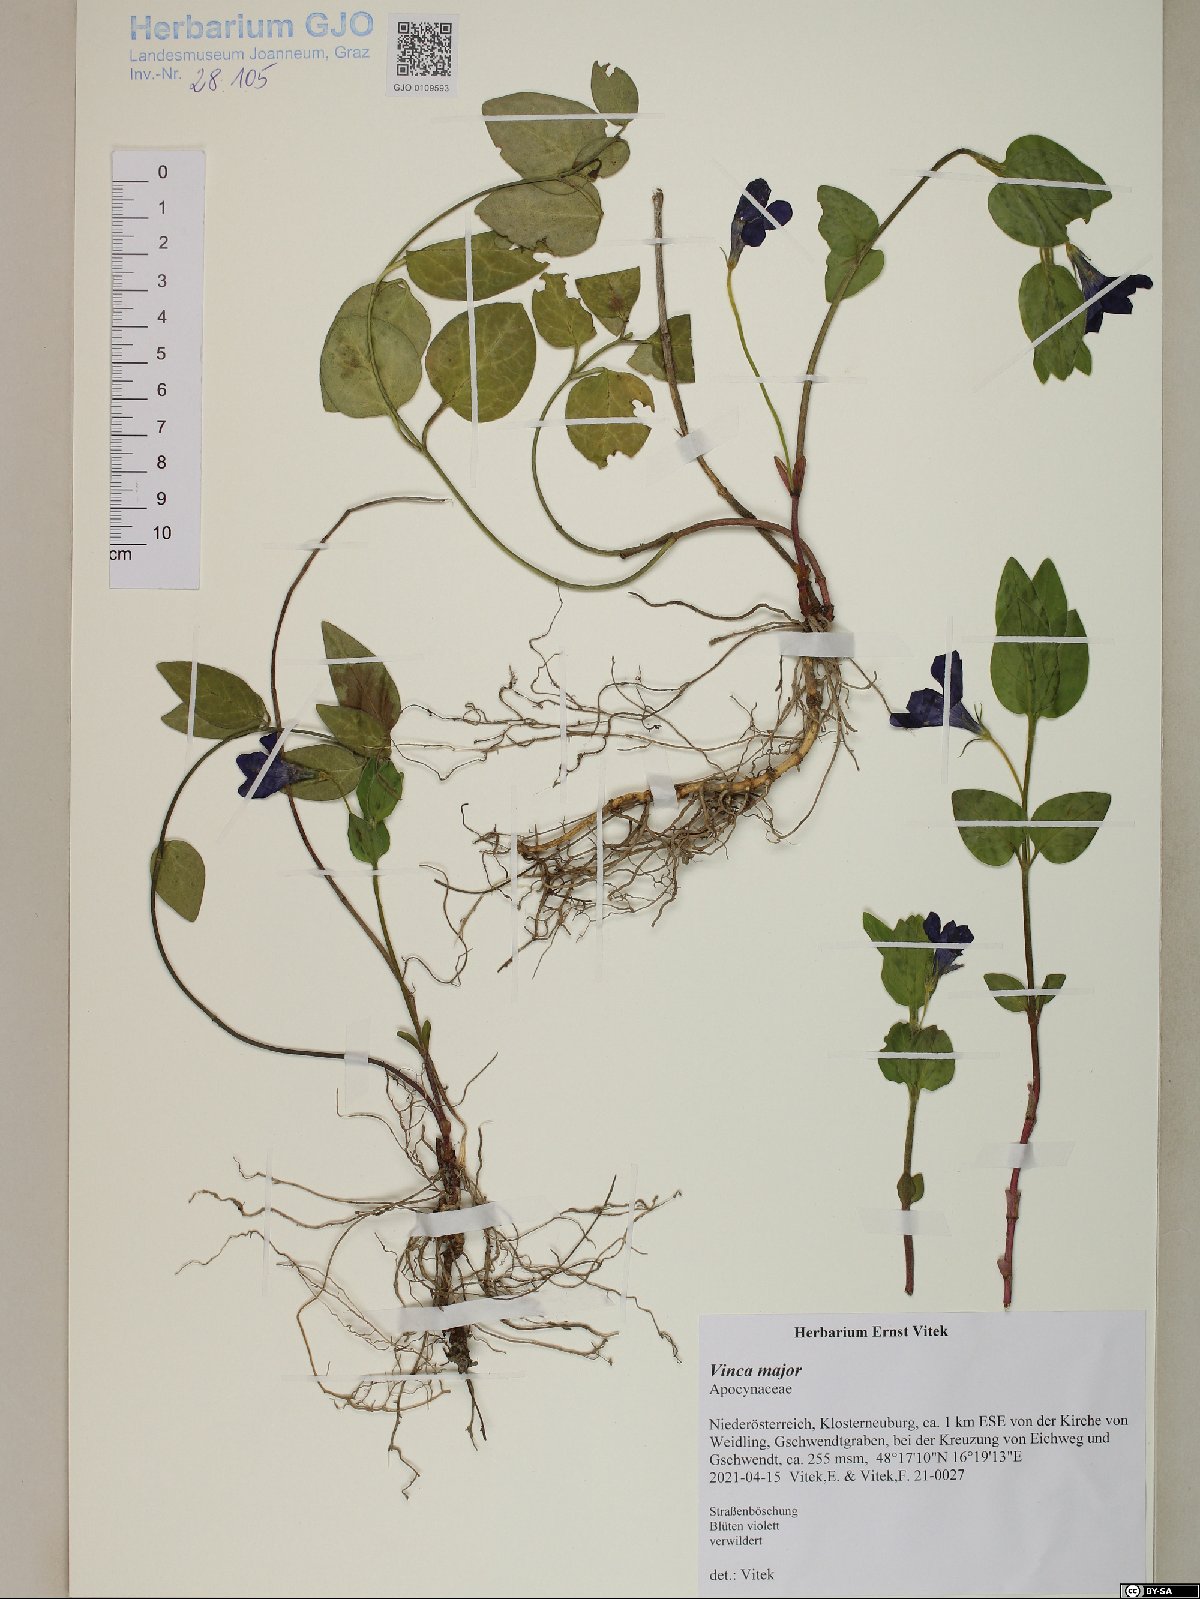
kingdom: Plantae
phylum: Tracheophyta
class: Magnoliopsida
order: Gentianales
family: Apocynaceae
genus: Vinca
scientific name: Vinca major
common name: Greater periwinkle
